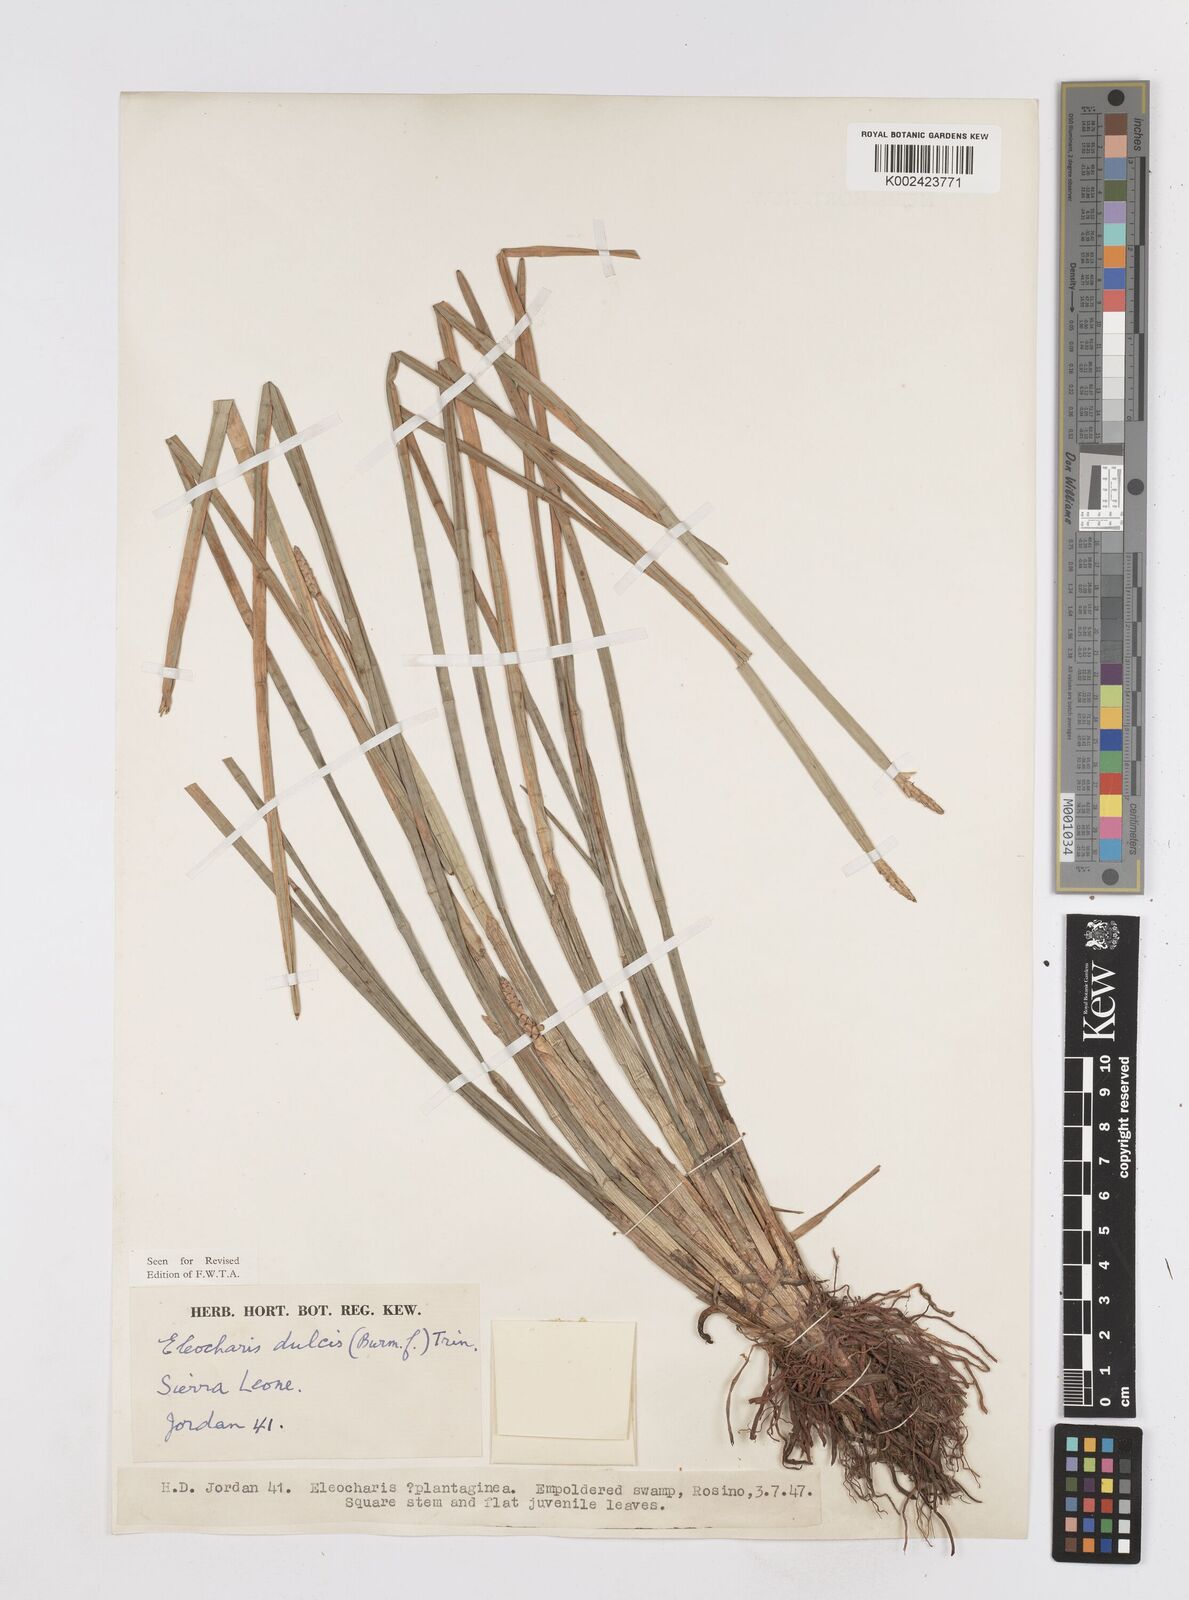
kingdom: Plantae
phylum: Tracheophyta
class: Liliopsida
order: Poales
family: Cyperaceae
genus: Eleocharis
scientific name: Eleocharis dulcis
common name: Chinese water chestnut
